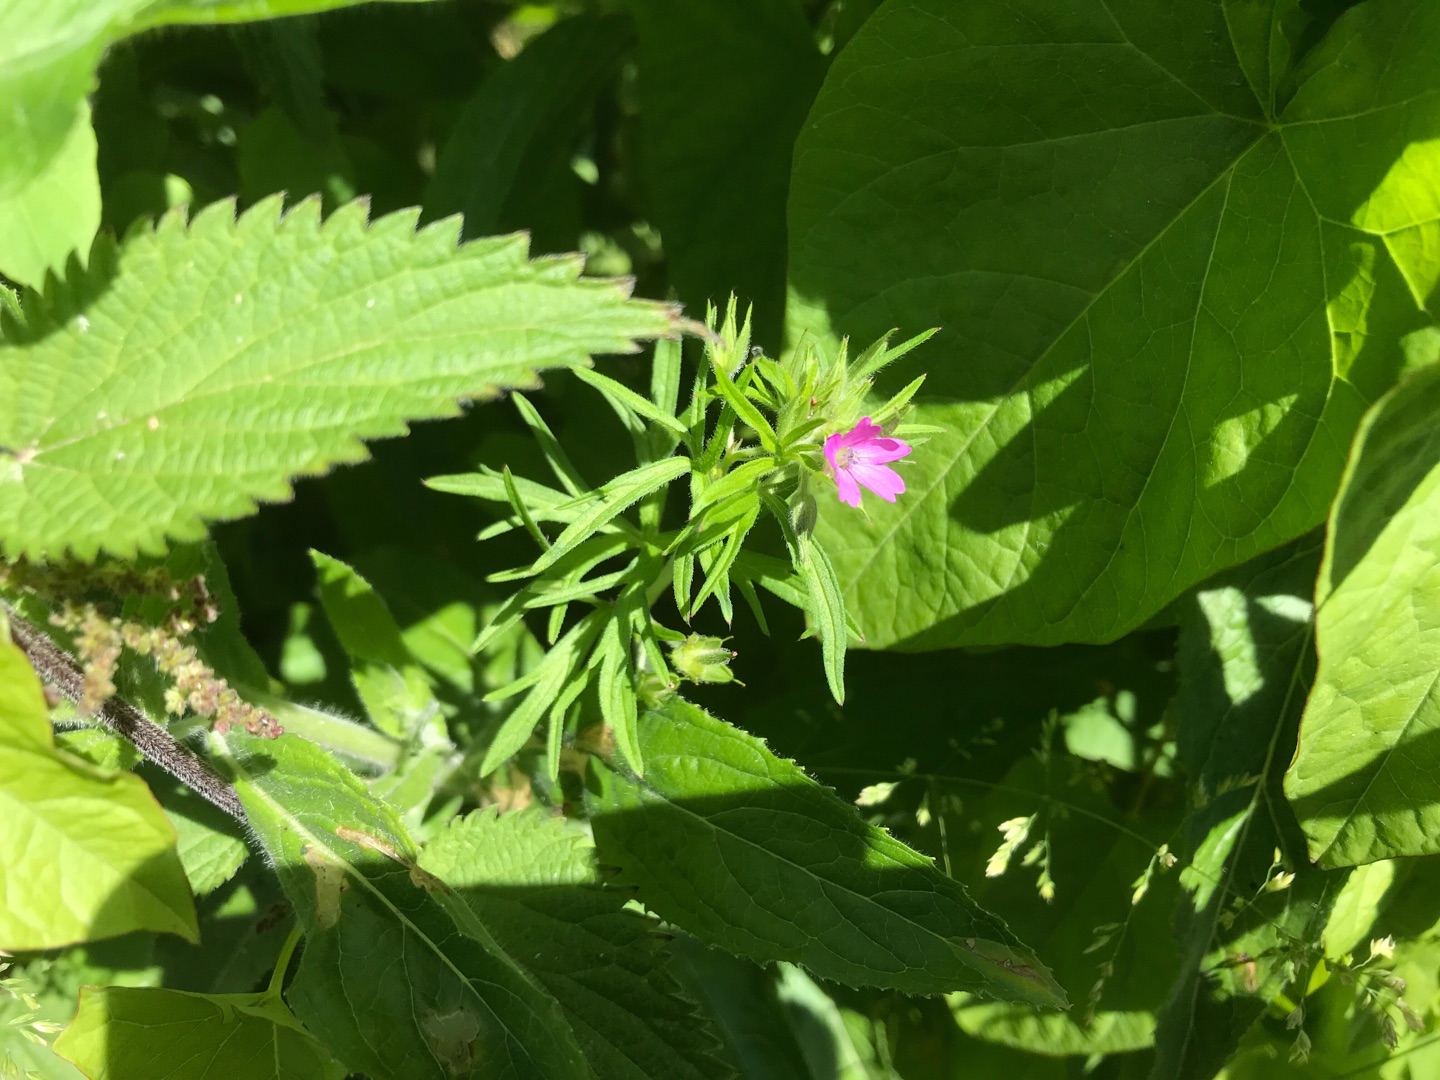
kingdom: Plantae
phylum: Tracheophyta
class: Magnoliopsida
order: Geraniales
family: Geraniaceae
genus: Geranium
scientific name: Geranium dissectum
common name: Kløftet storkenæb
